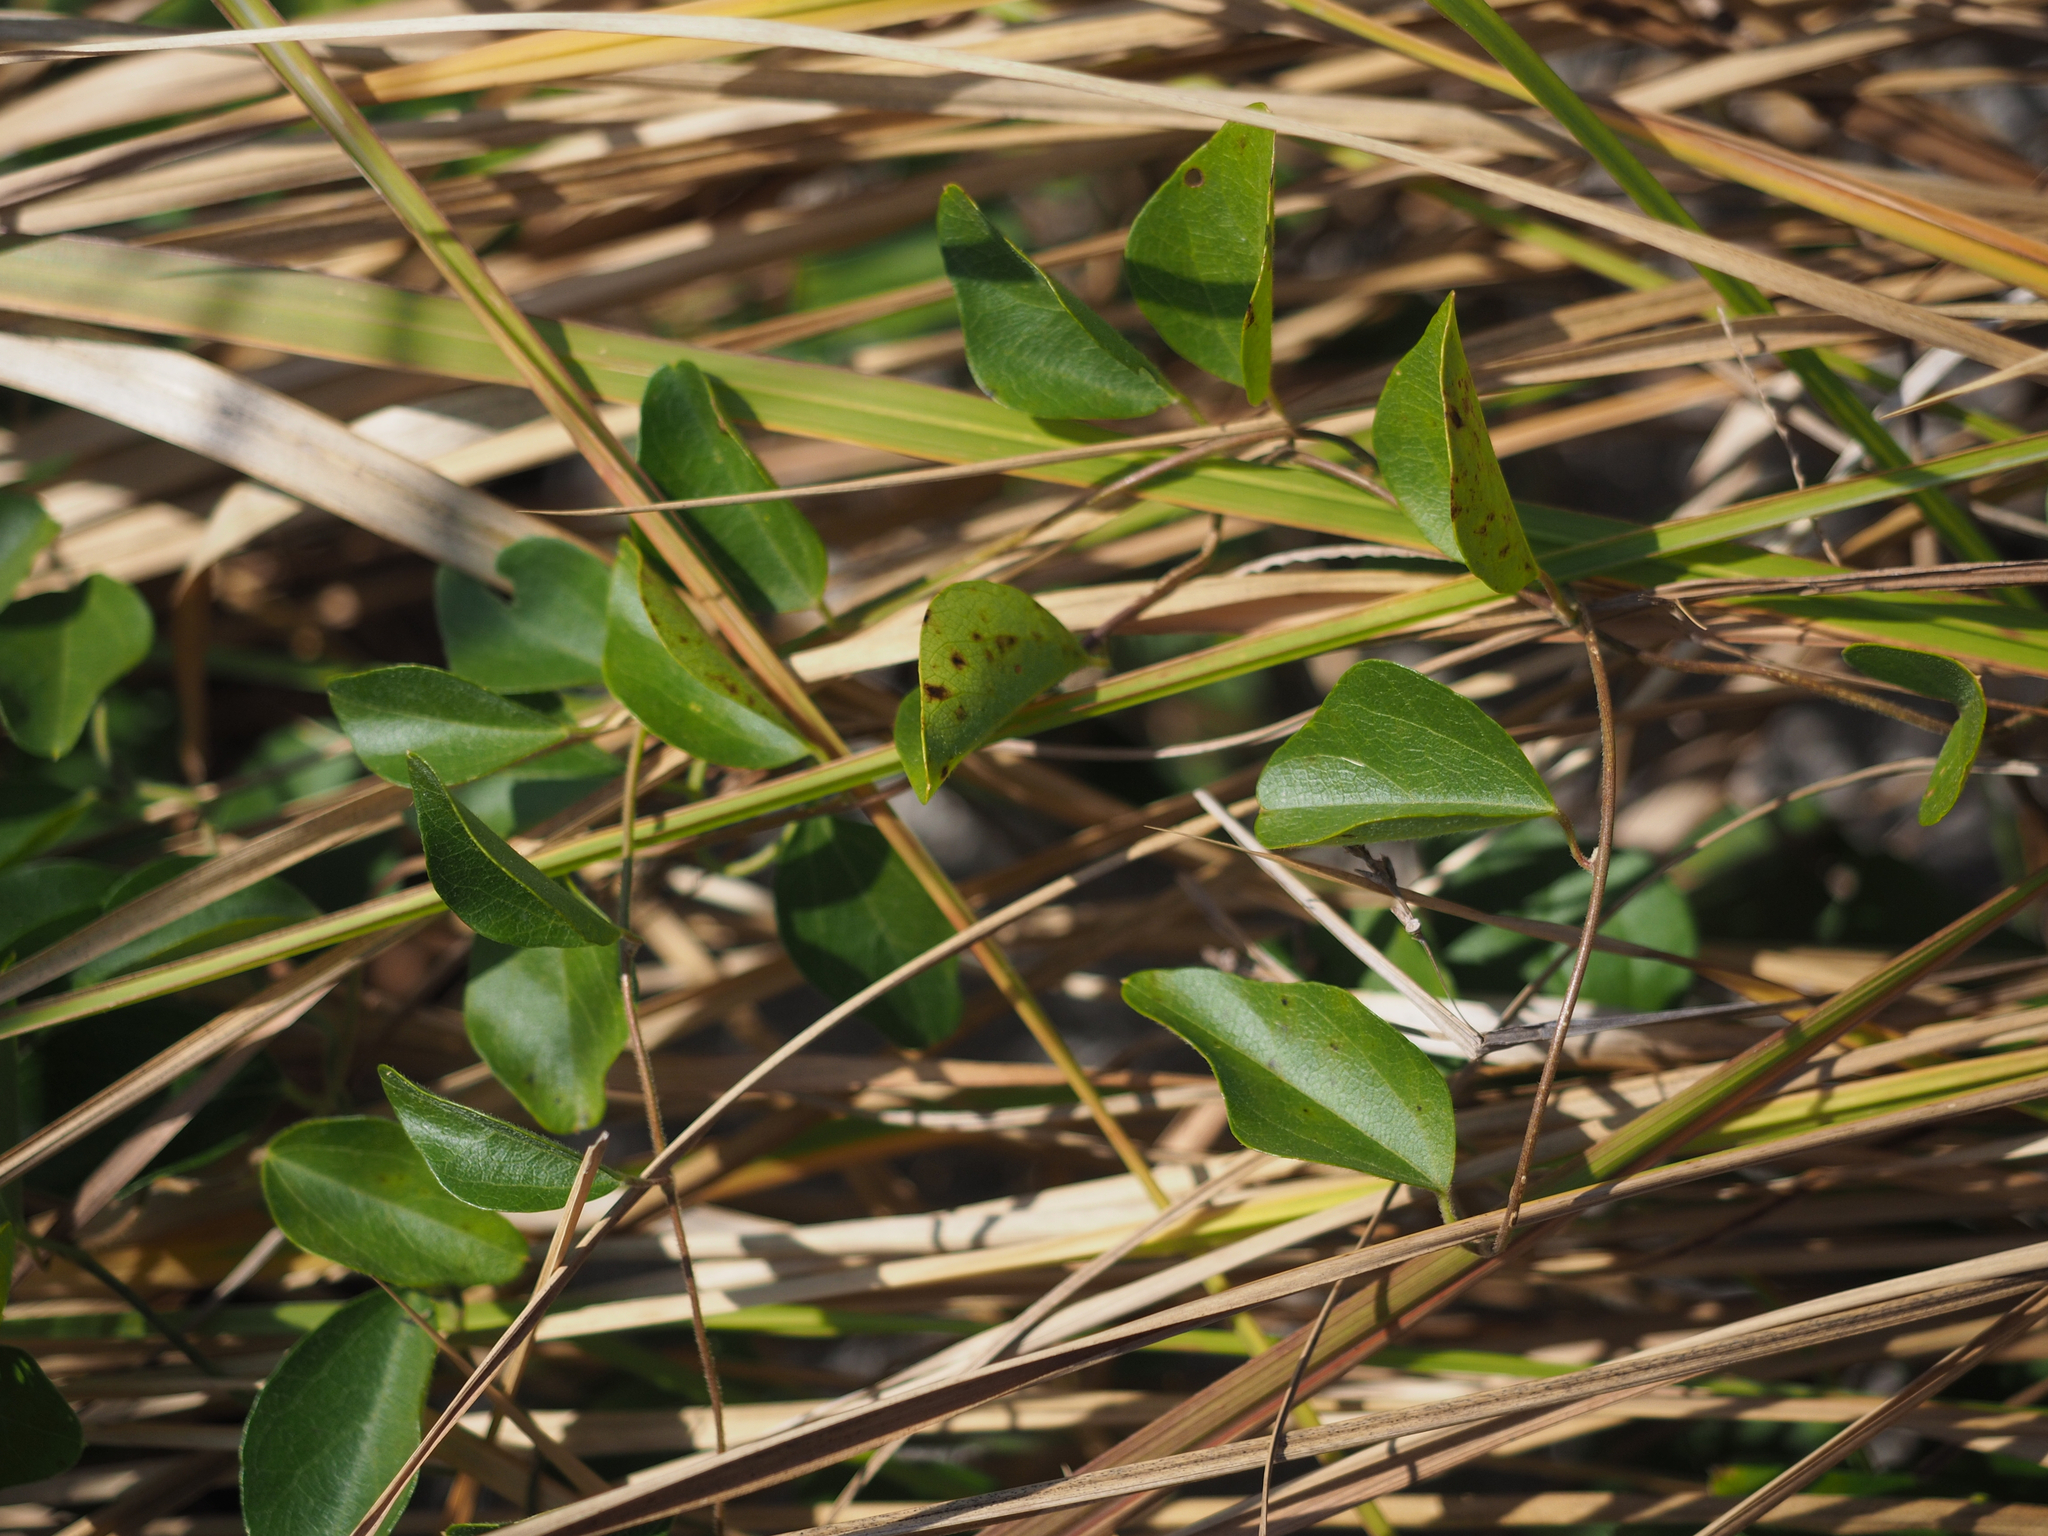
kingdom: Plantae
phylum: Tracheophyta
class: Magnoliopsida
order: Ranunculales
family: Menispermaceae
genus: Cocculus
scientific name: Cocculus orbiculatus
